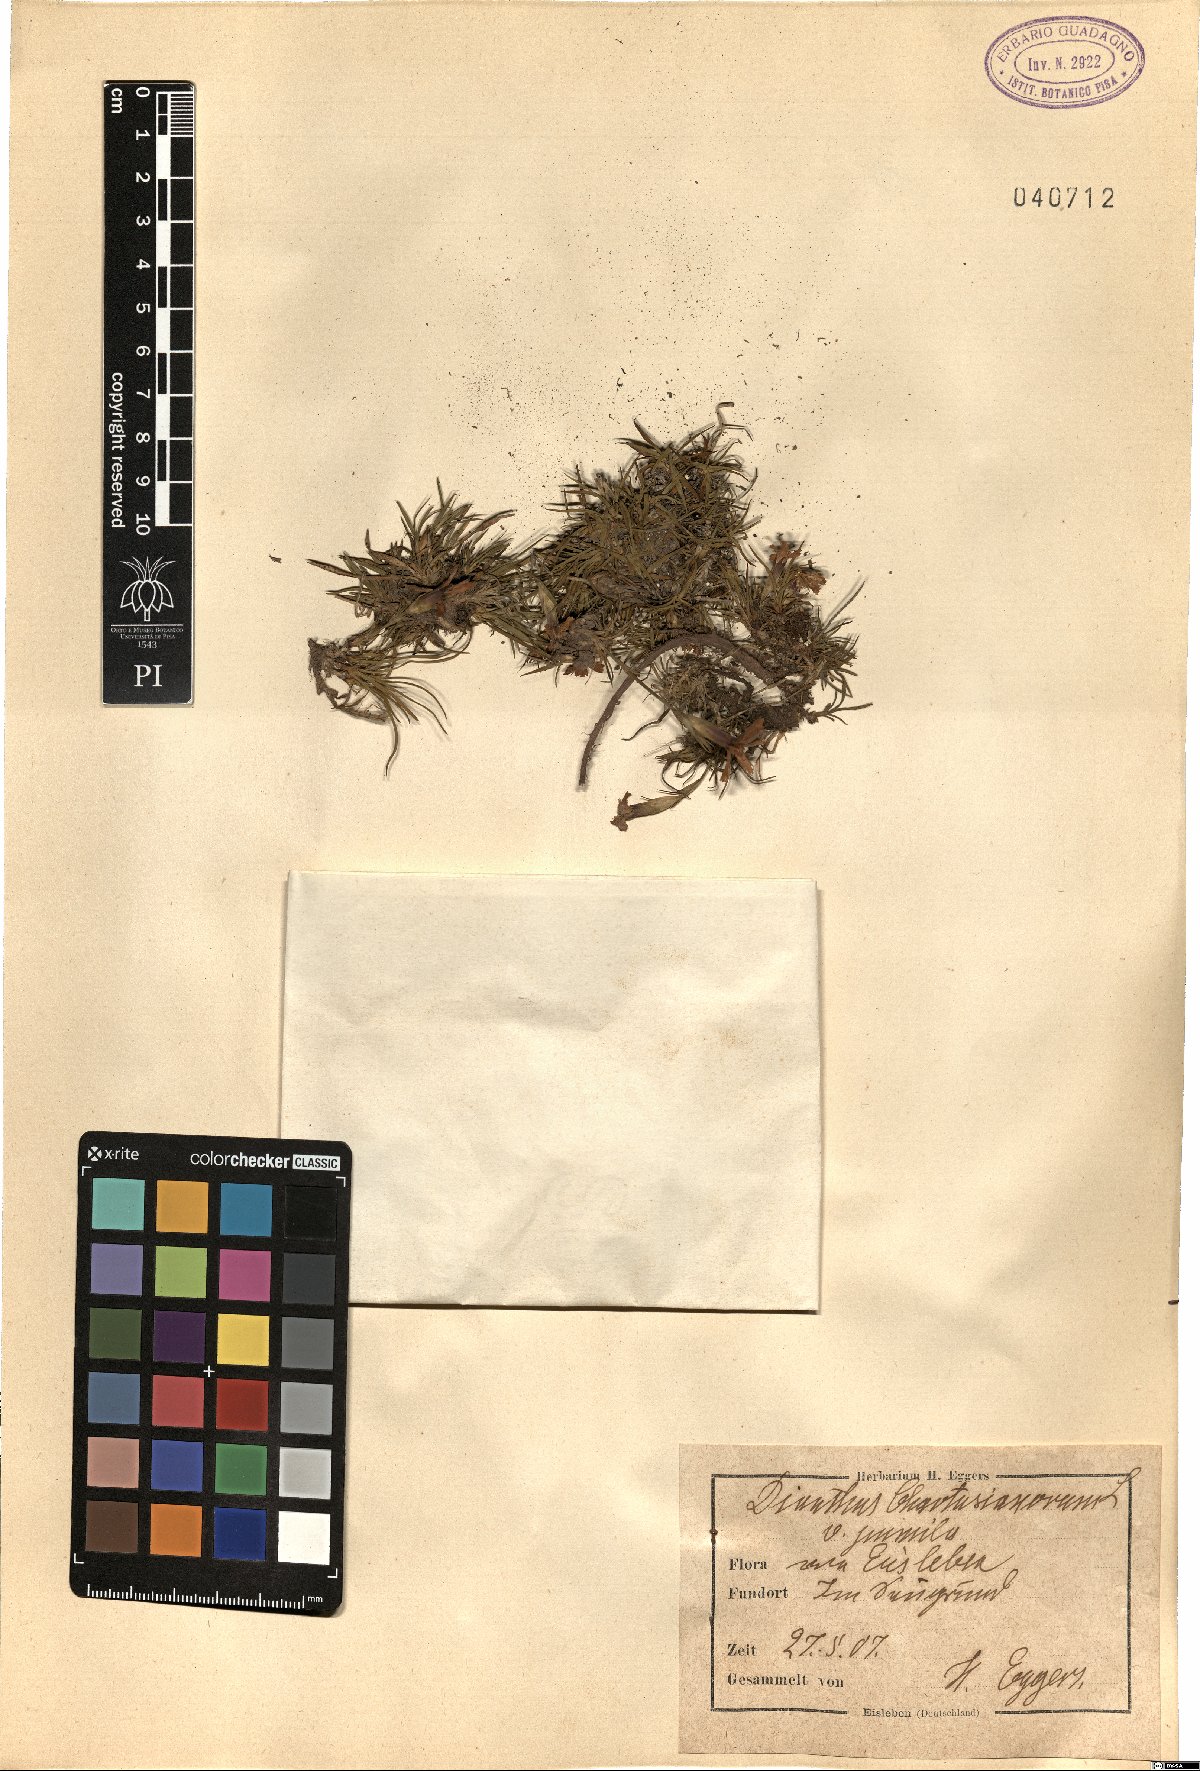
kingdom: Plantae
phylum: Tracheophyta
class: Magnoliopsida
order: Caryophyllales
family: Caryophyllaceae
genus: Dianthus
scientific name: Dianthus carthusianorum
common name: Carthusian pink
